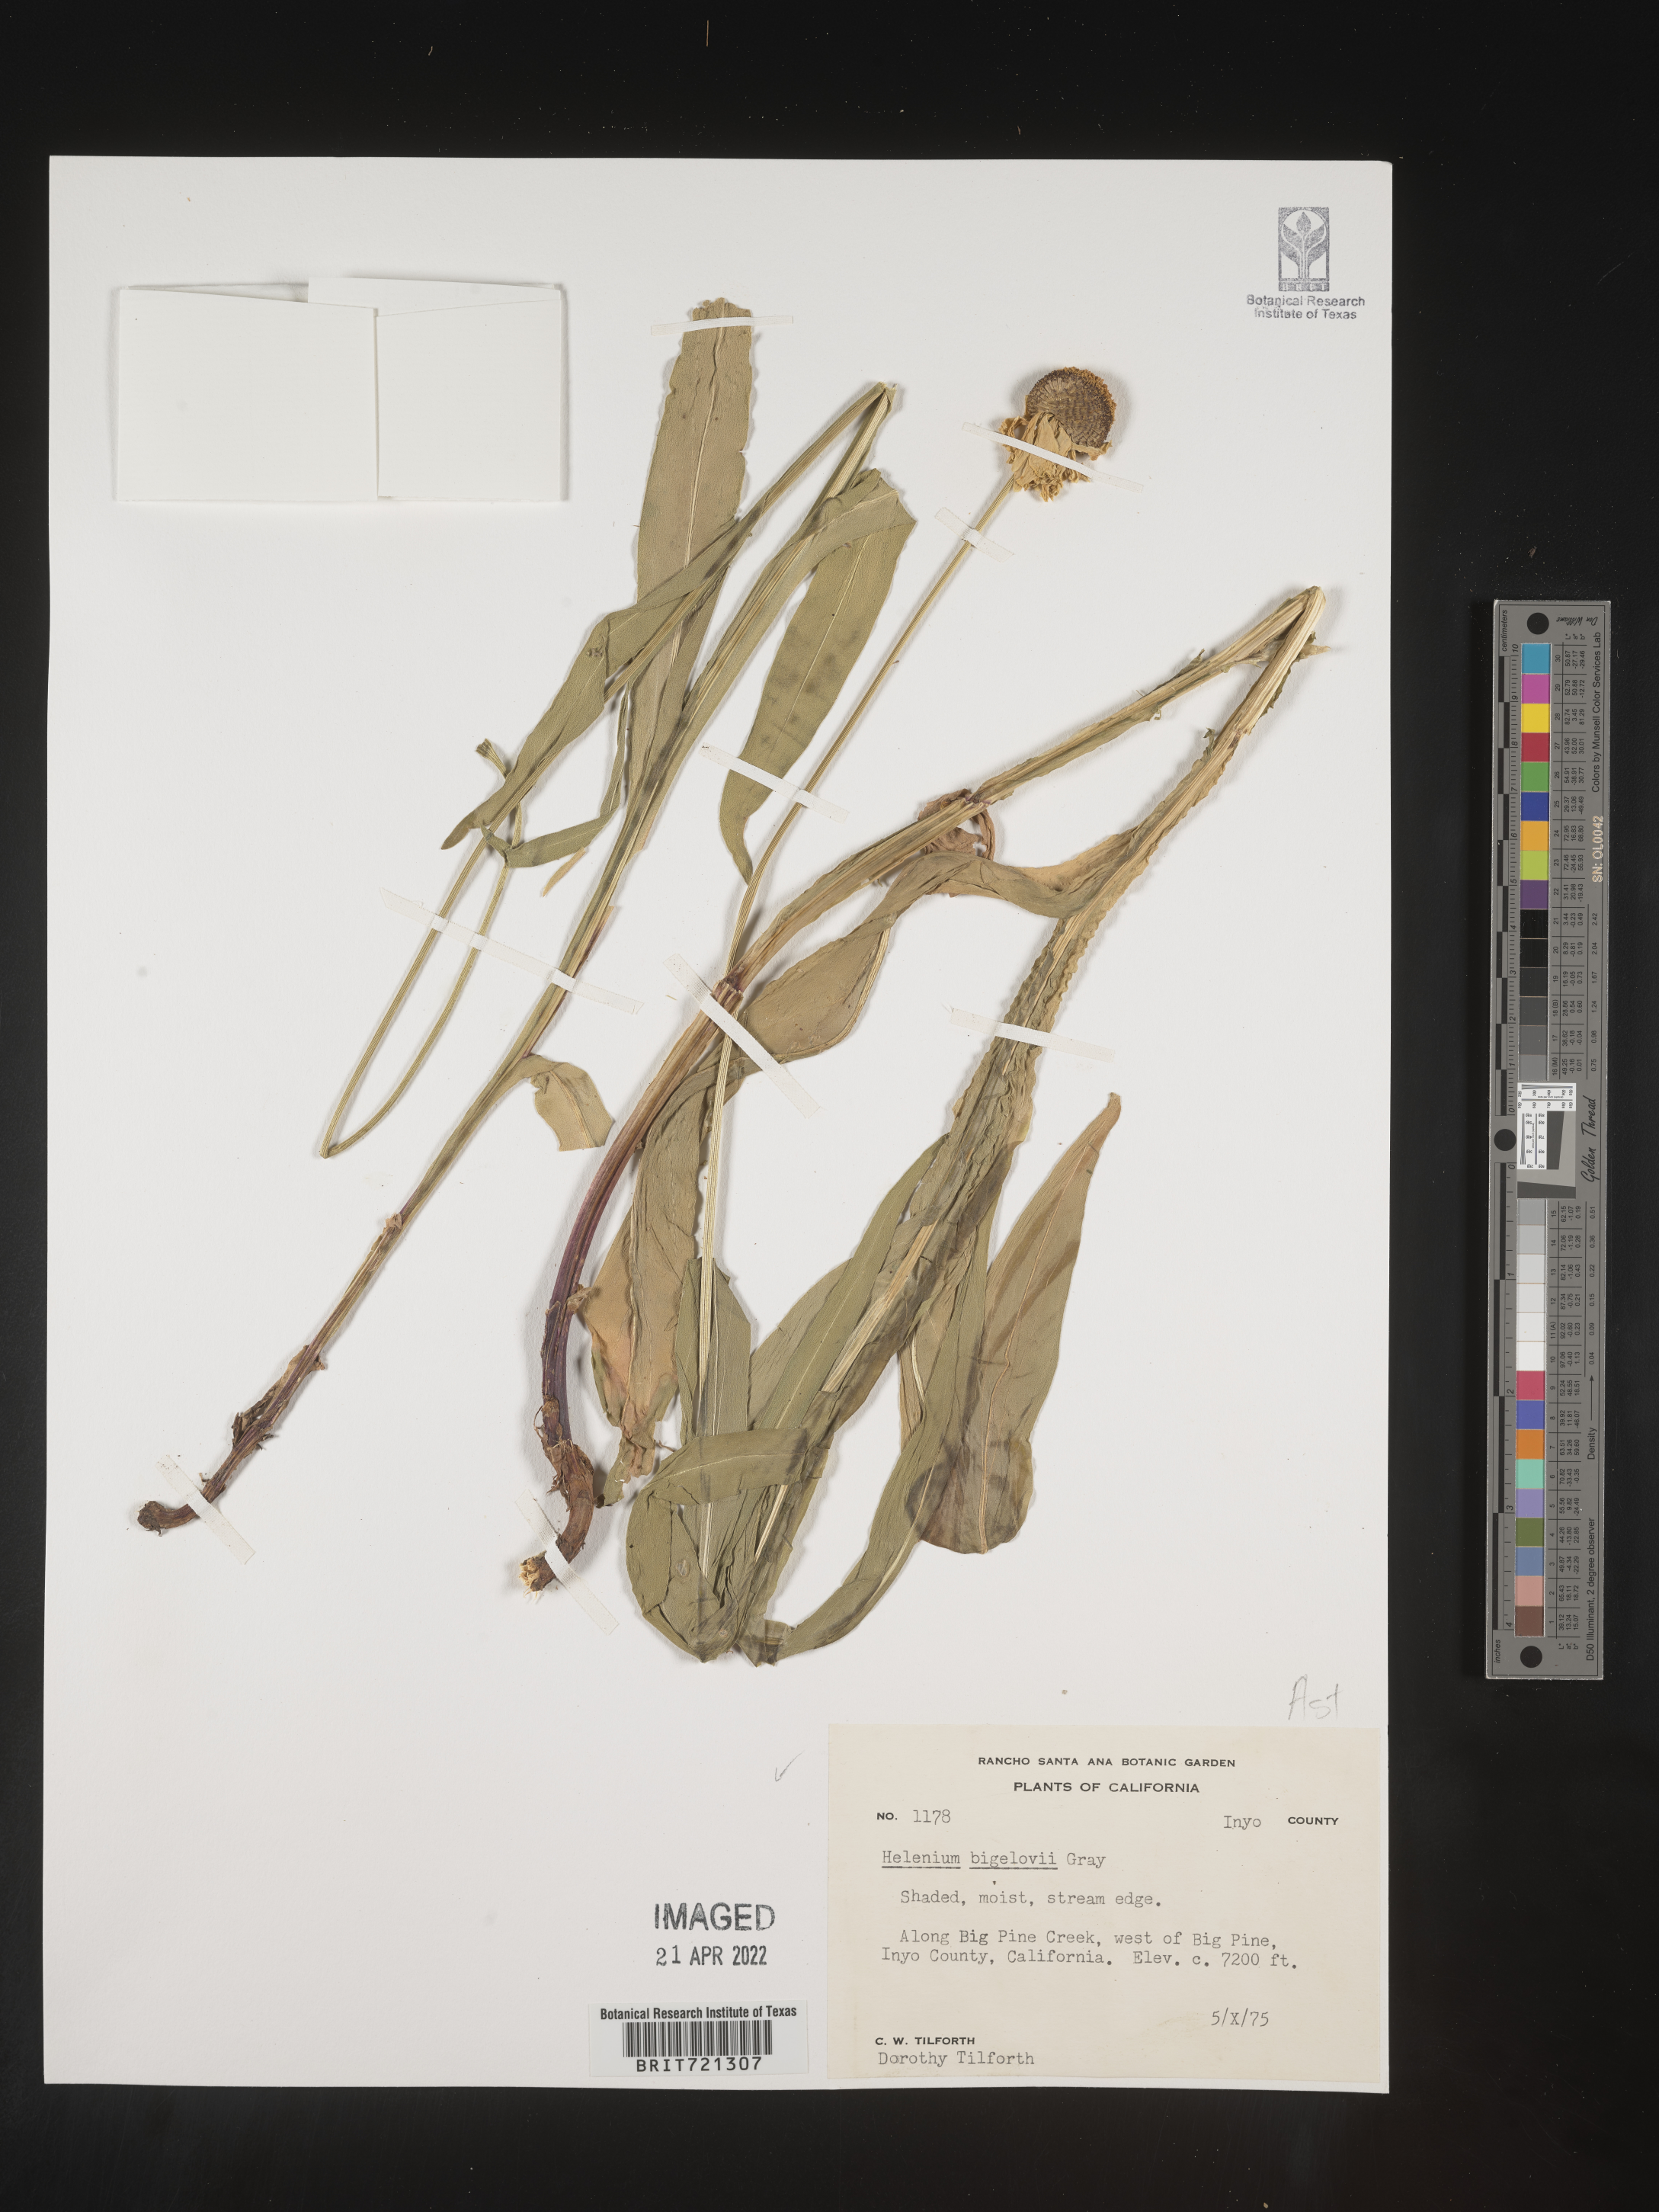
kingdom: Plantae
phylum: Tracheophyta
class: Magnoliopsida
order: Asterales
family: Asteraceae
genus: Helenium
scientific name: Helenium
